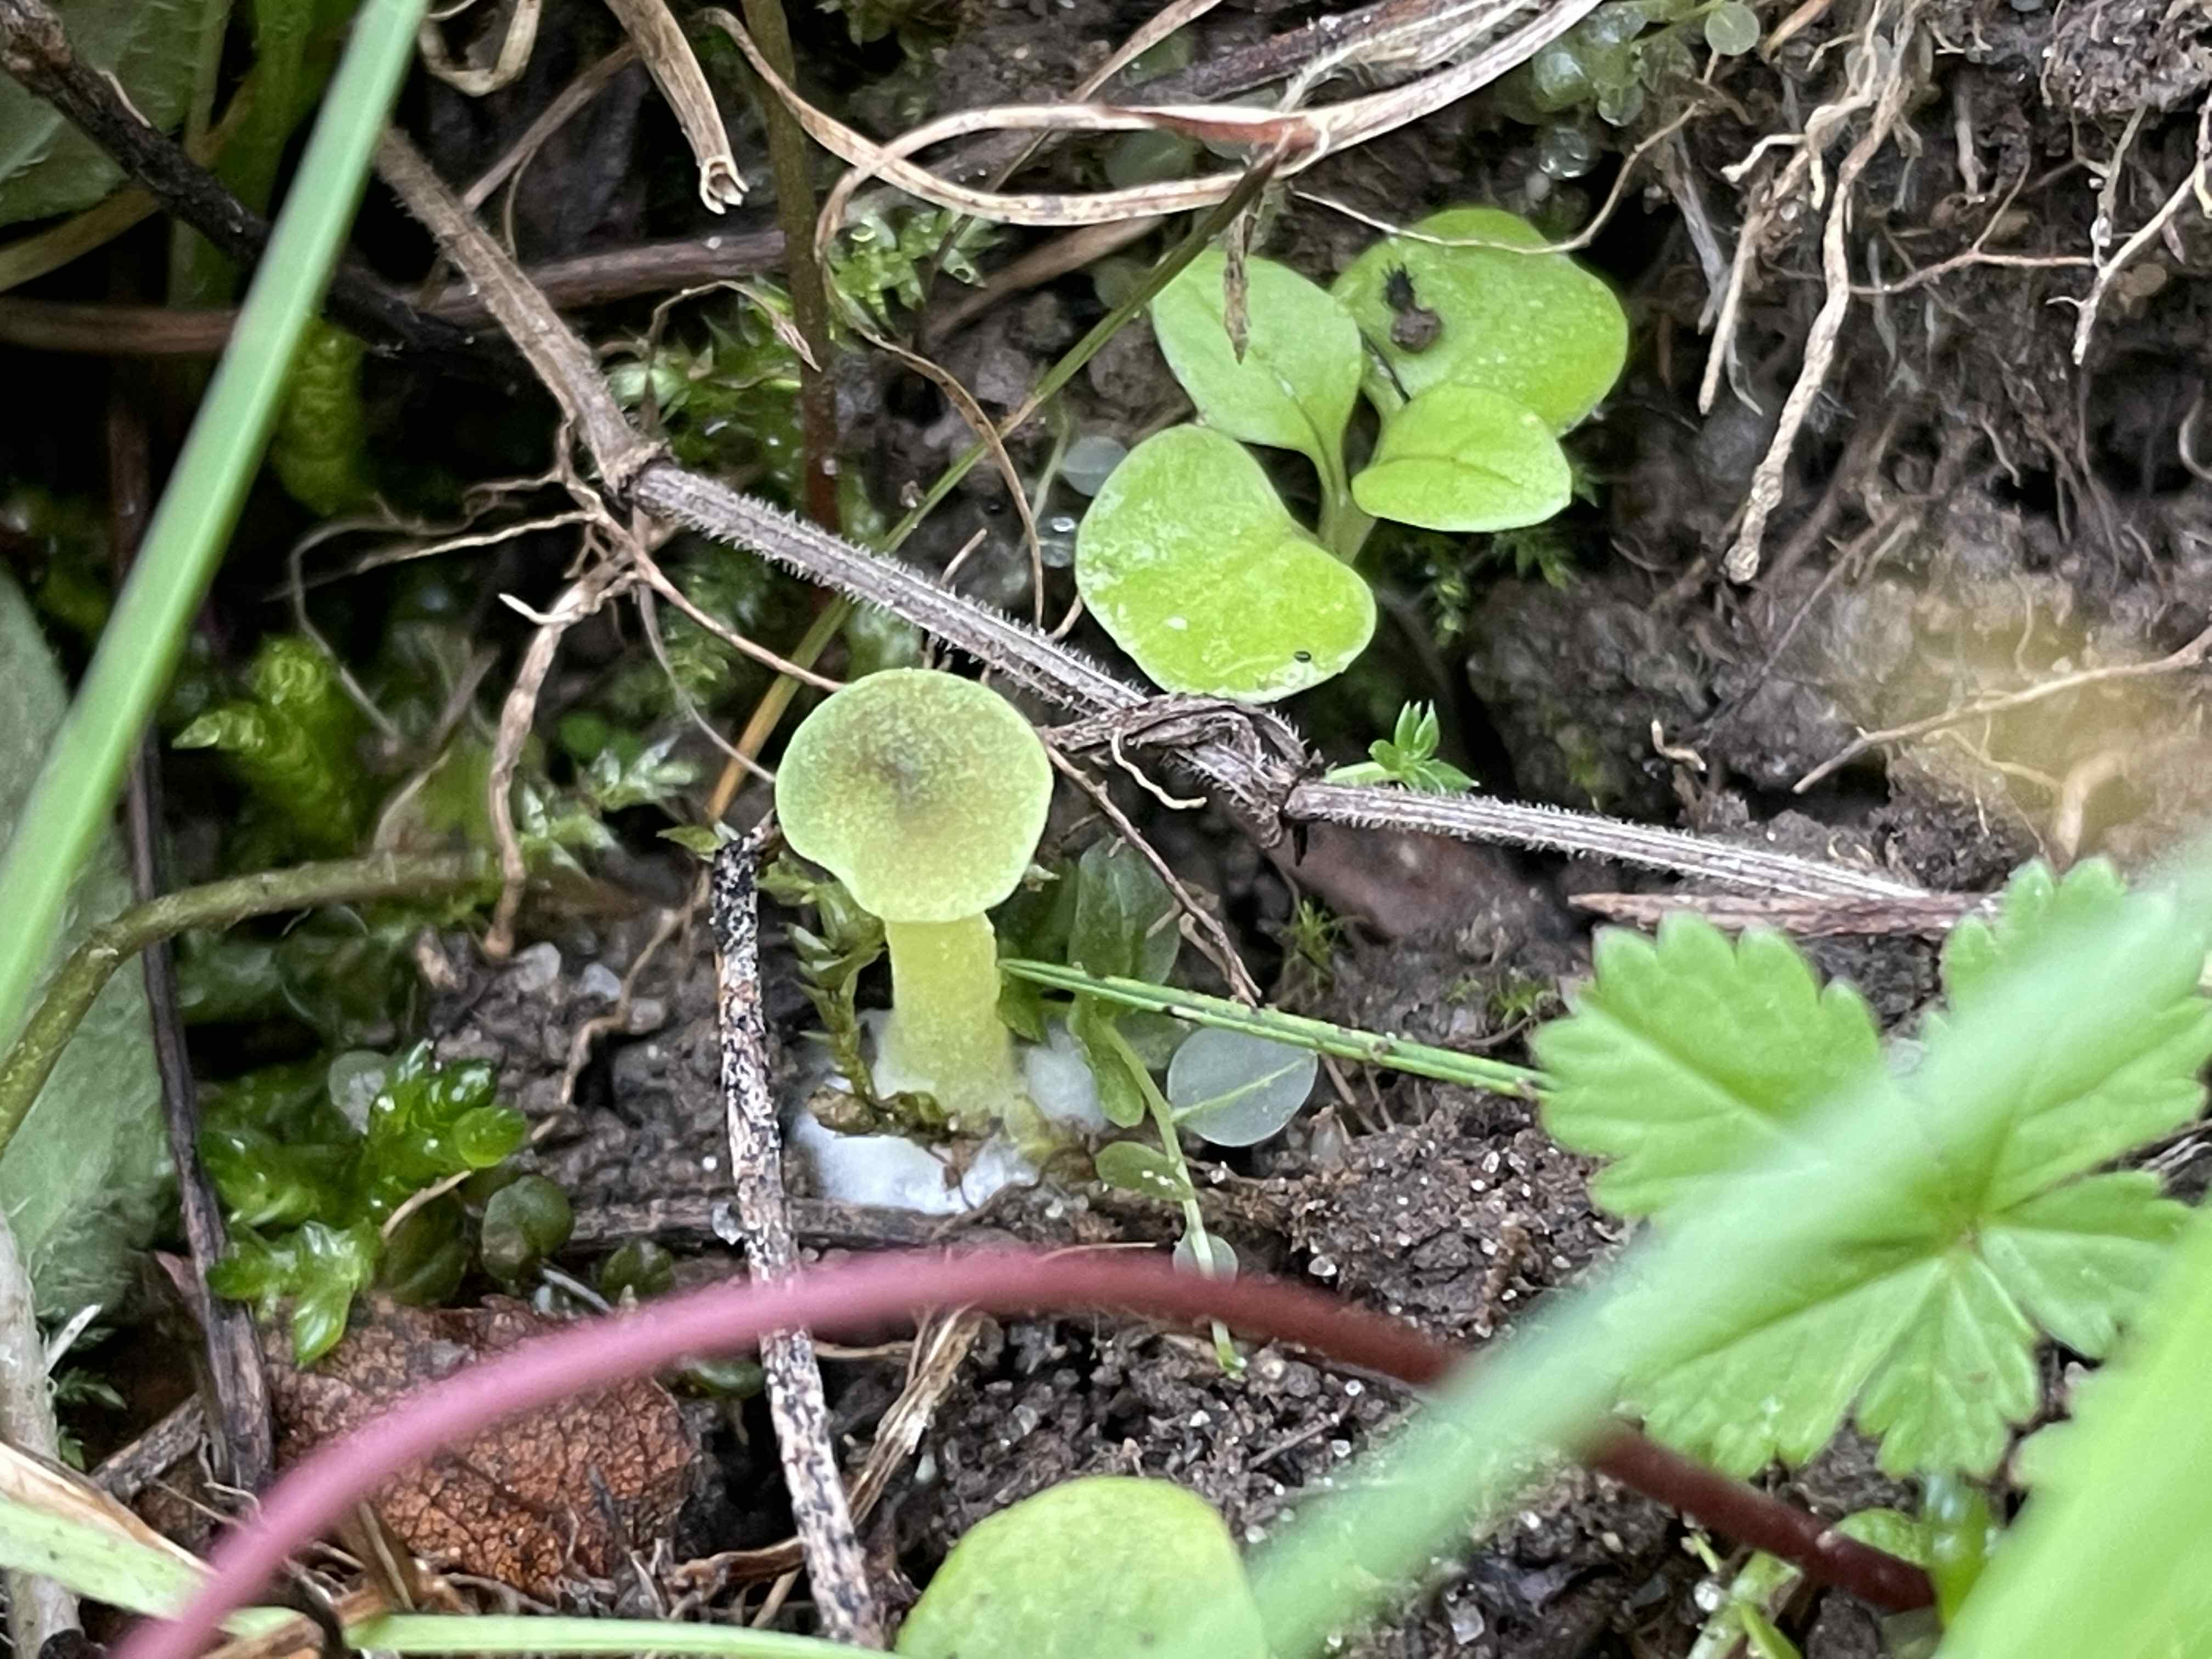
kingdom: Fungi
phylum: Basidiomycota
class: Agaricomycetes
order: Agaricales
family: Entolomataceae
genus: Entoloma
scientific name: Entoloma incanum
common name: grøngul rødblad
